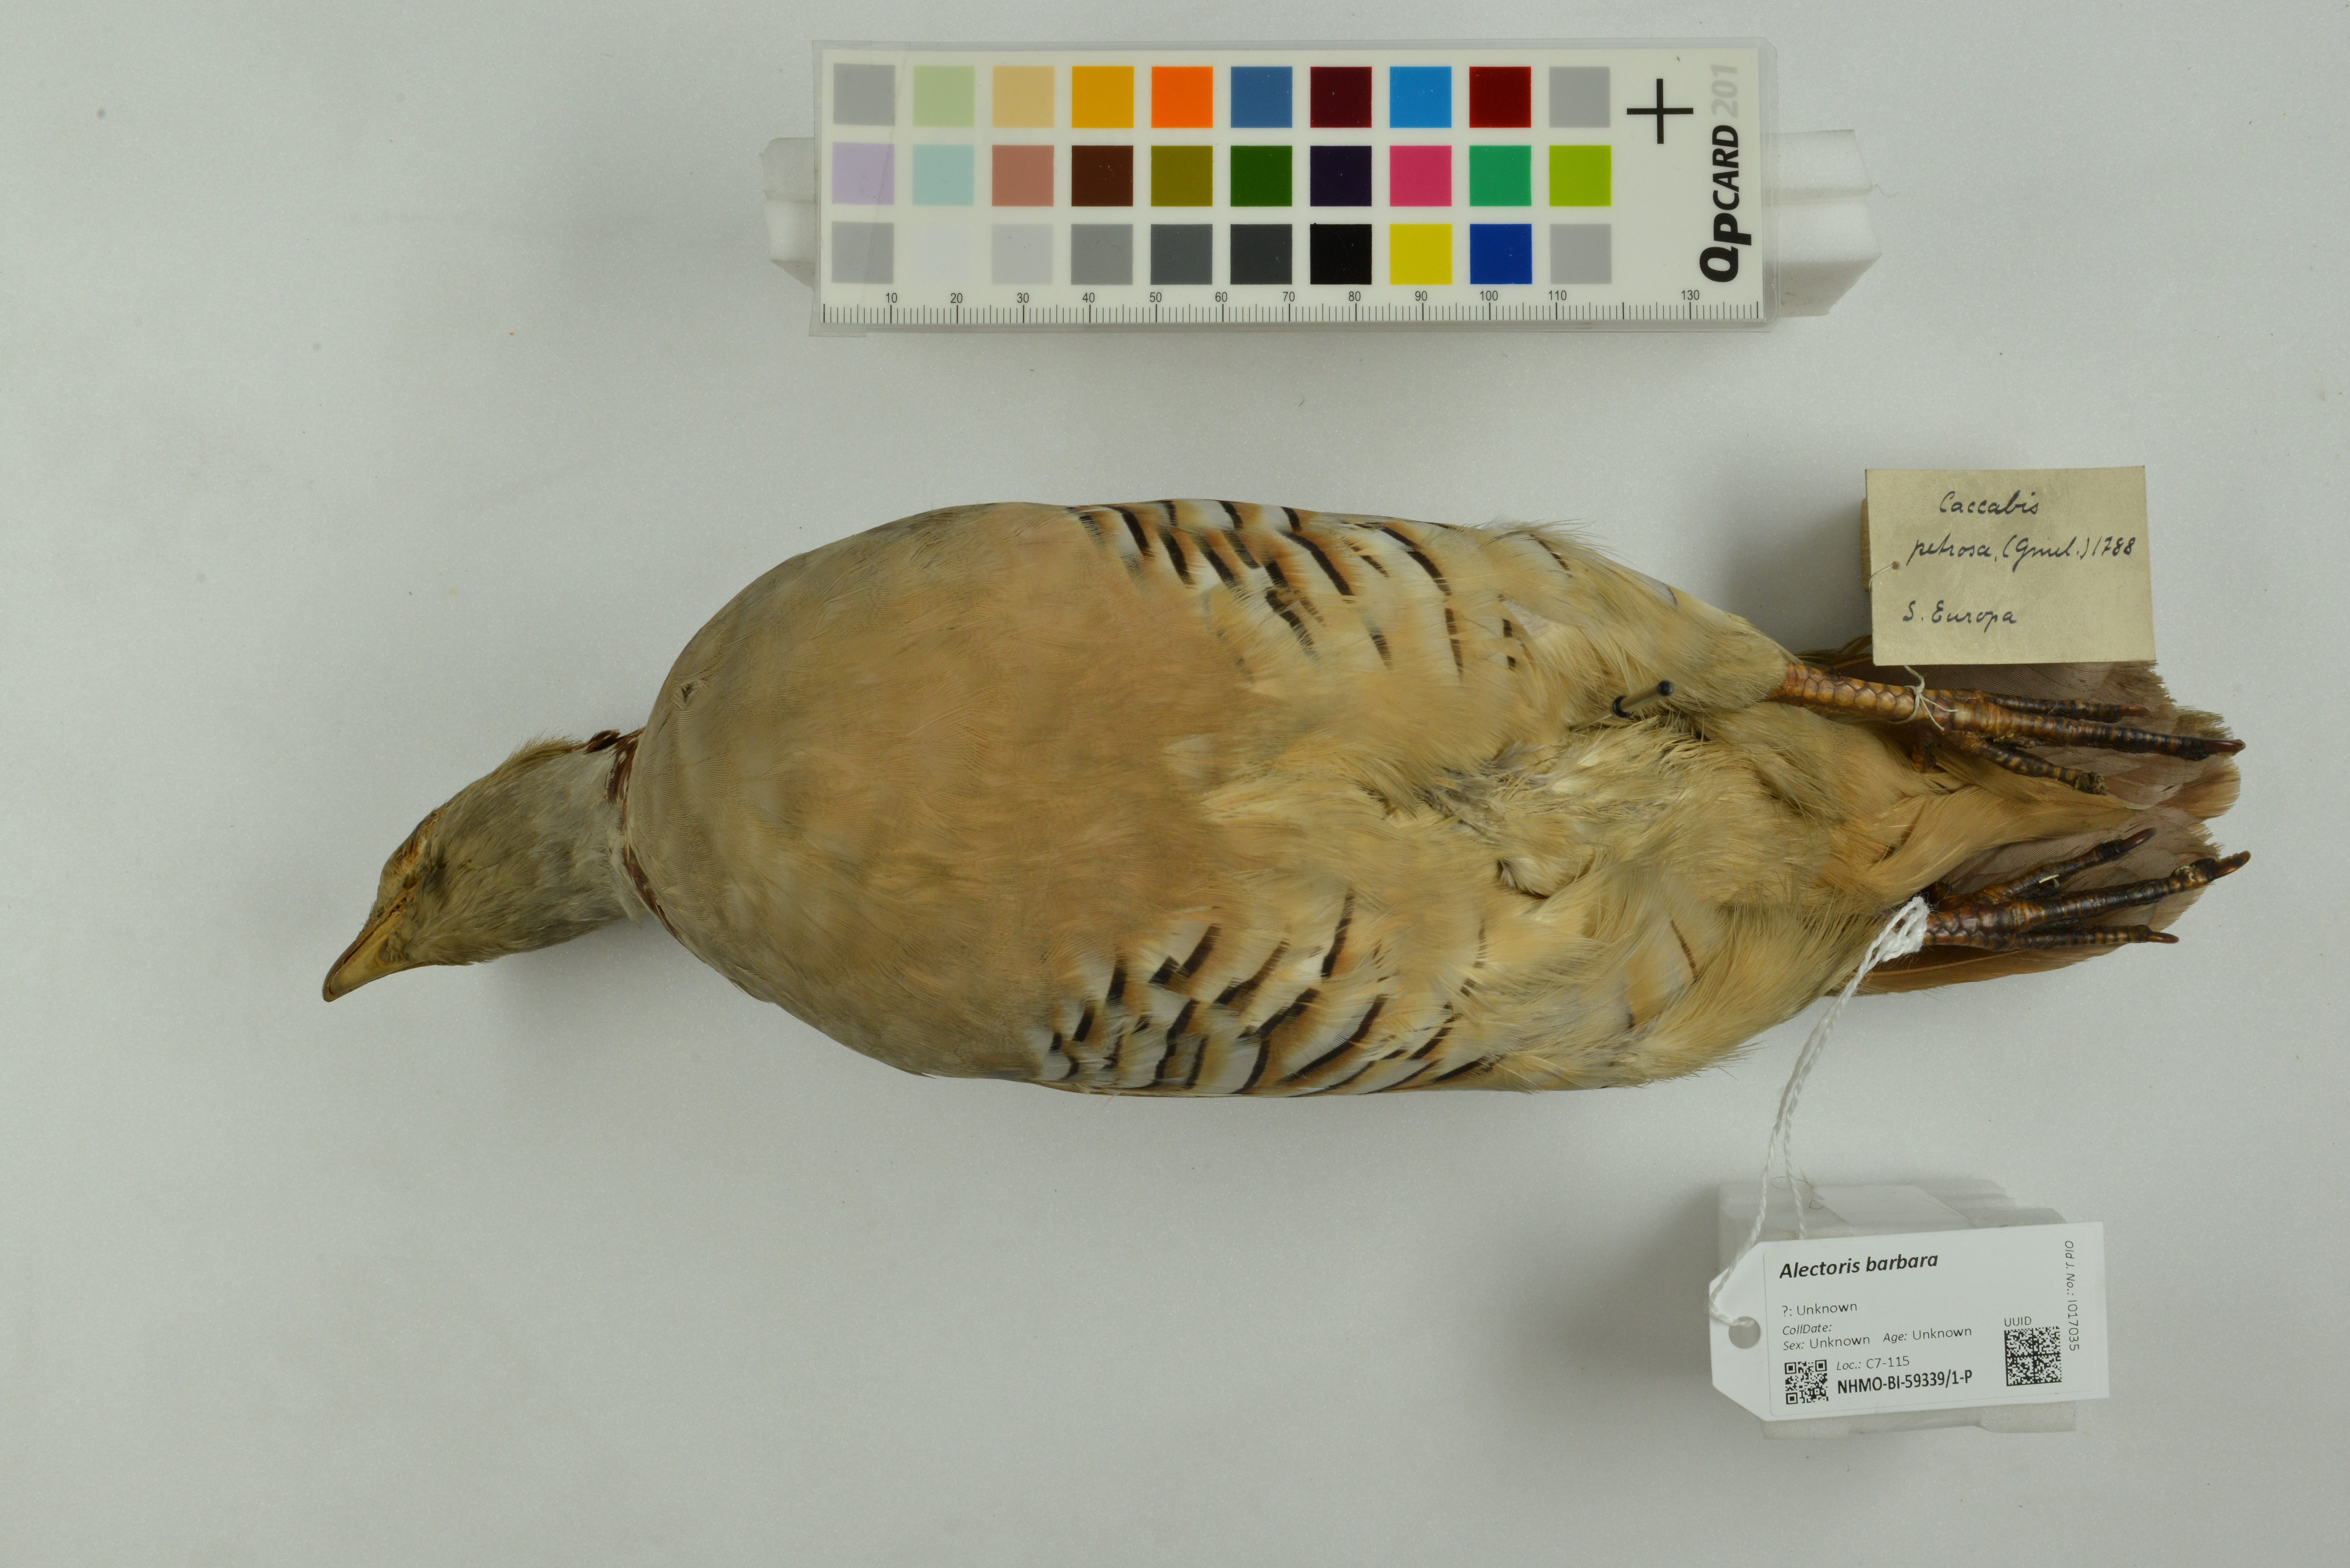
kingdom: Animalia
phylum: Chordata
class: Aves
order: Galliformes
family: Phasianidae
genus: Alectoris
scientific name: Alectoris barbara
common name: Barbary partridge
